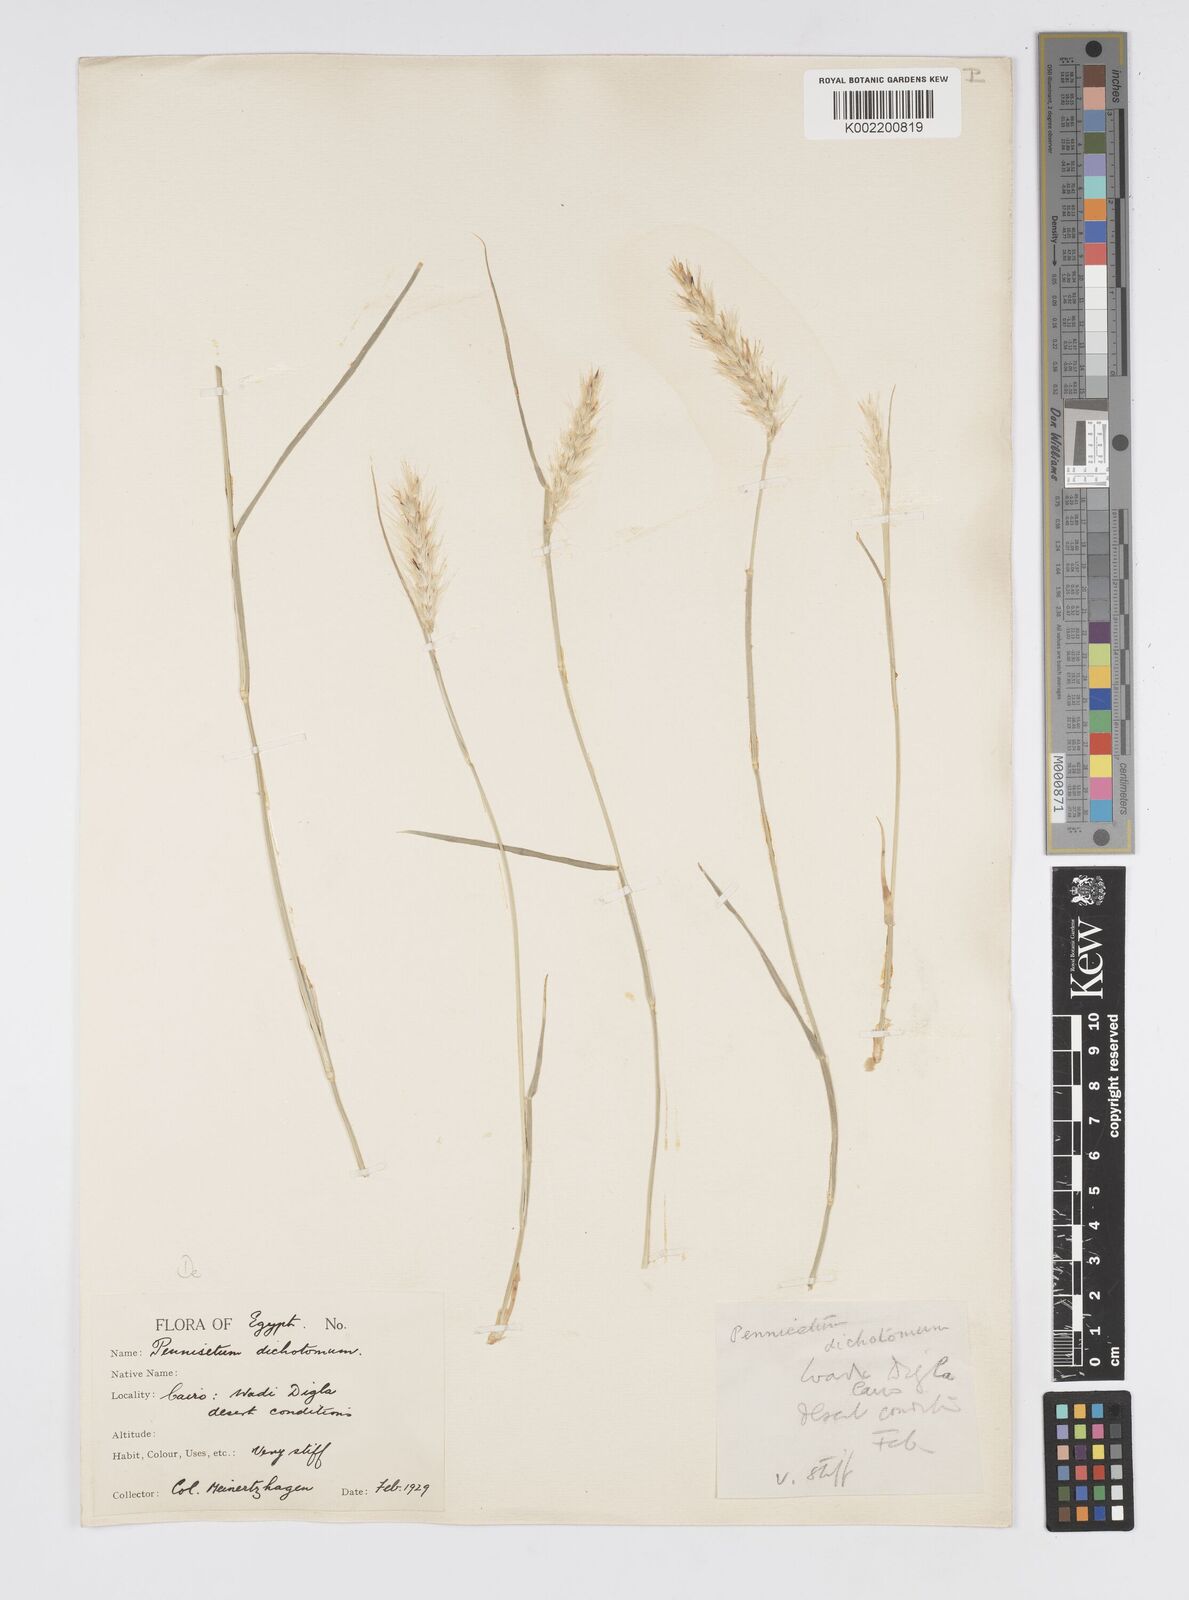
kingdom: Plantae
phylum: Tracheophyta
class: Liliopsida
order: Poales
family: Poaceae
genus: Cenchrus
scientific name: Cenchrus divisus
